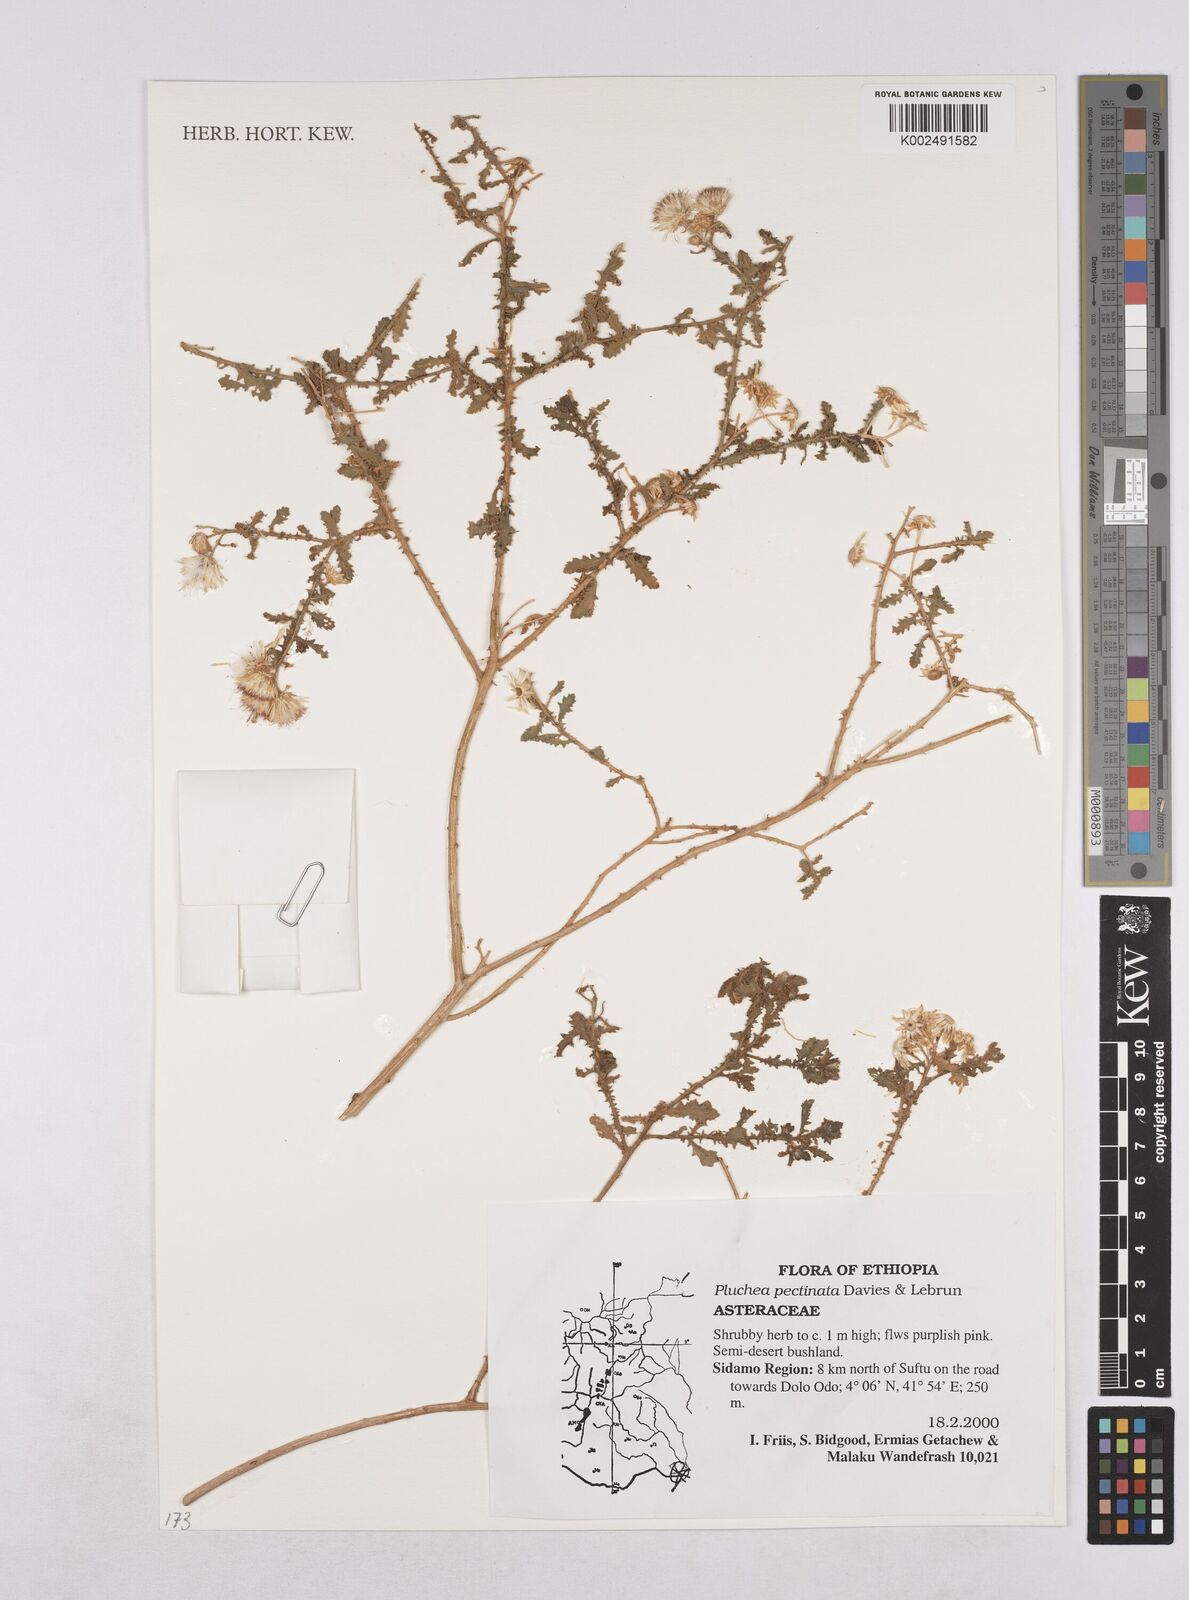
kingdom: Plantae
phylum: Tracheophyta
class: Magnoliopsida
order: Asterales
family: Asteraceae
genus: Pluchea
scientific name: Pluchea somaliensis
